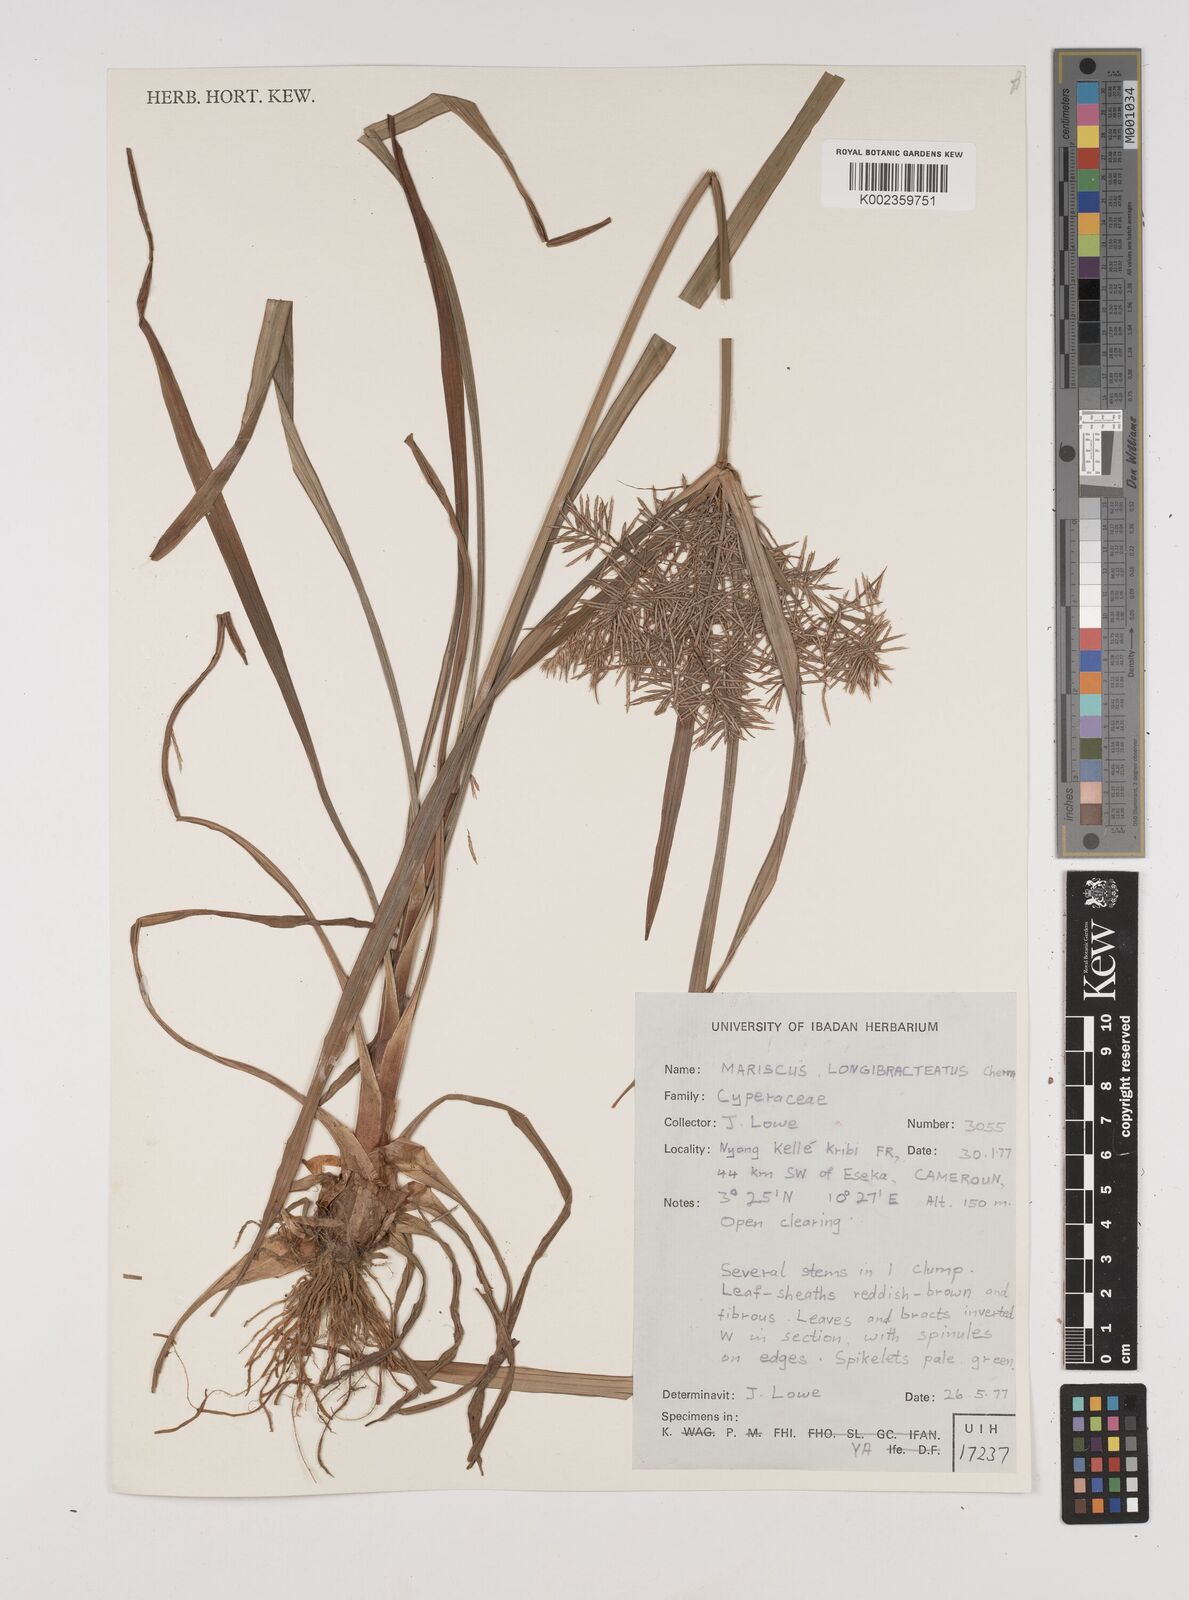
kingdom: Plantae
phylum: Tracheophyta
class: Liliopsida
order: Poales
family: Cyperaceae
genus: Cyperus
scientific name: Cyperus distans
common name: Slender cyperus
